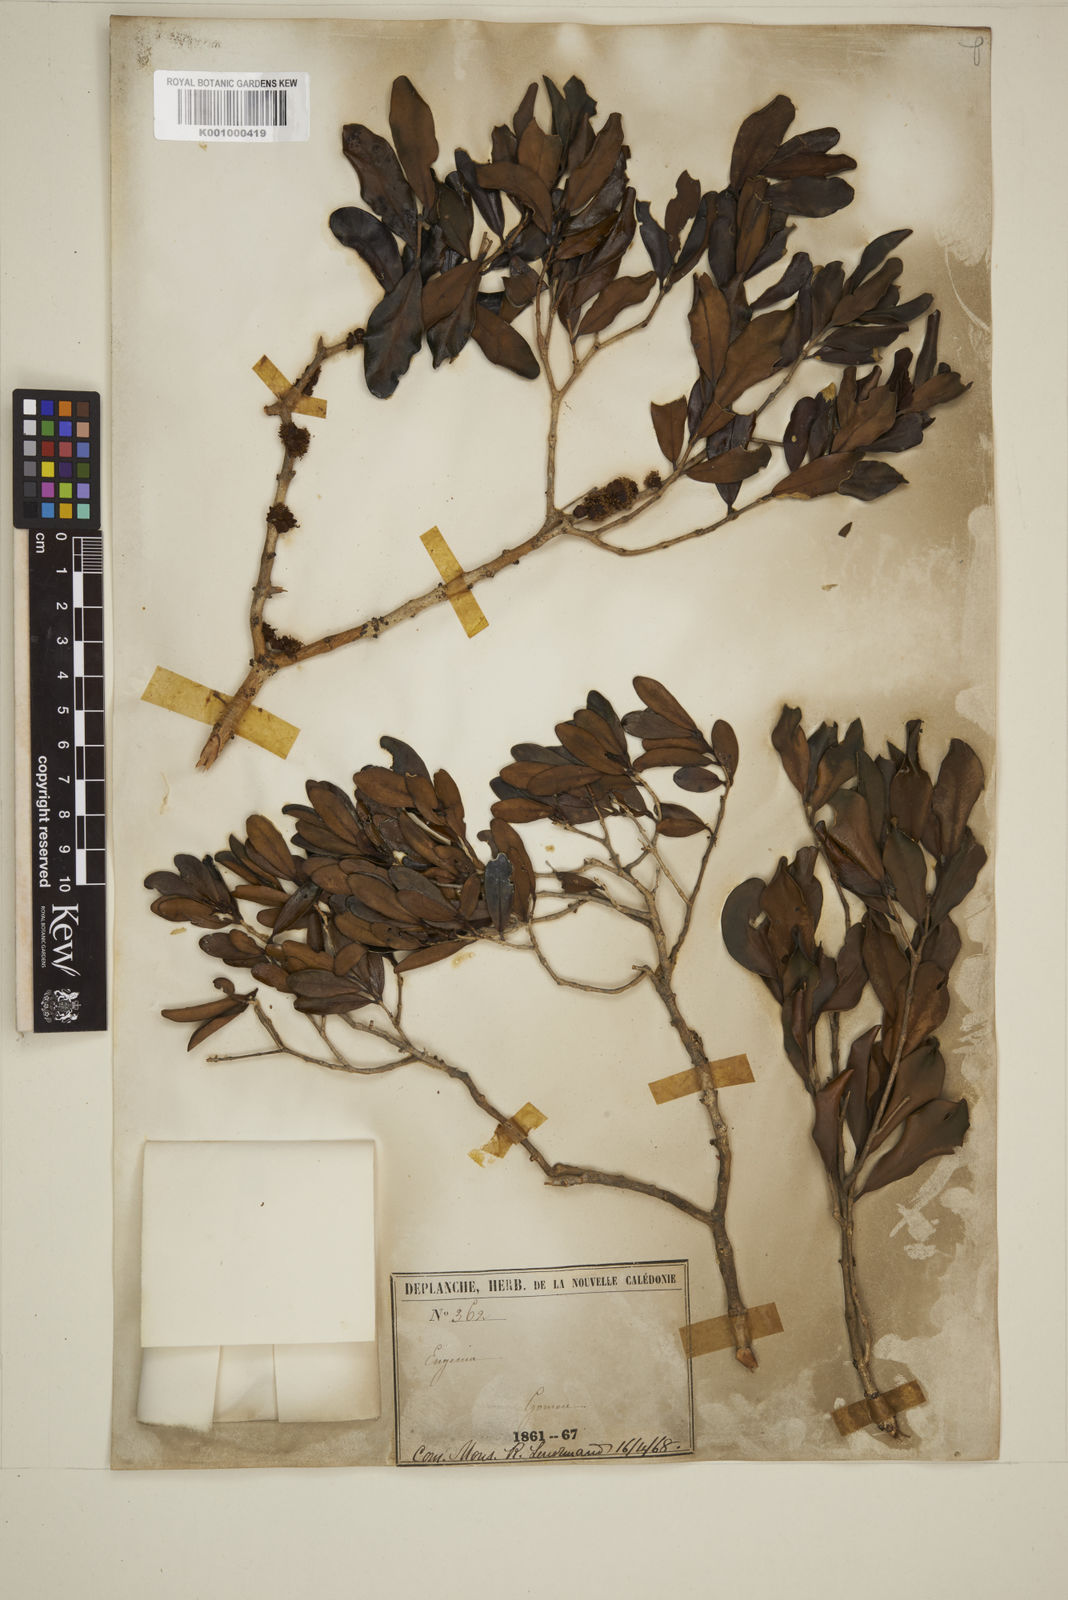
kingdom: Plantae
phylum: Tracheophyta
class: Magnoliopsida
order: Myrtales
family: Myrtaceae
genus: Eugenia
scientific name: Eugenia
